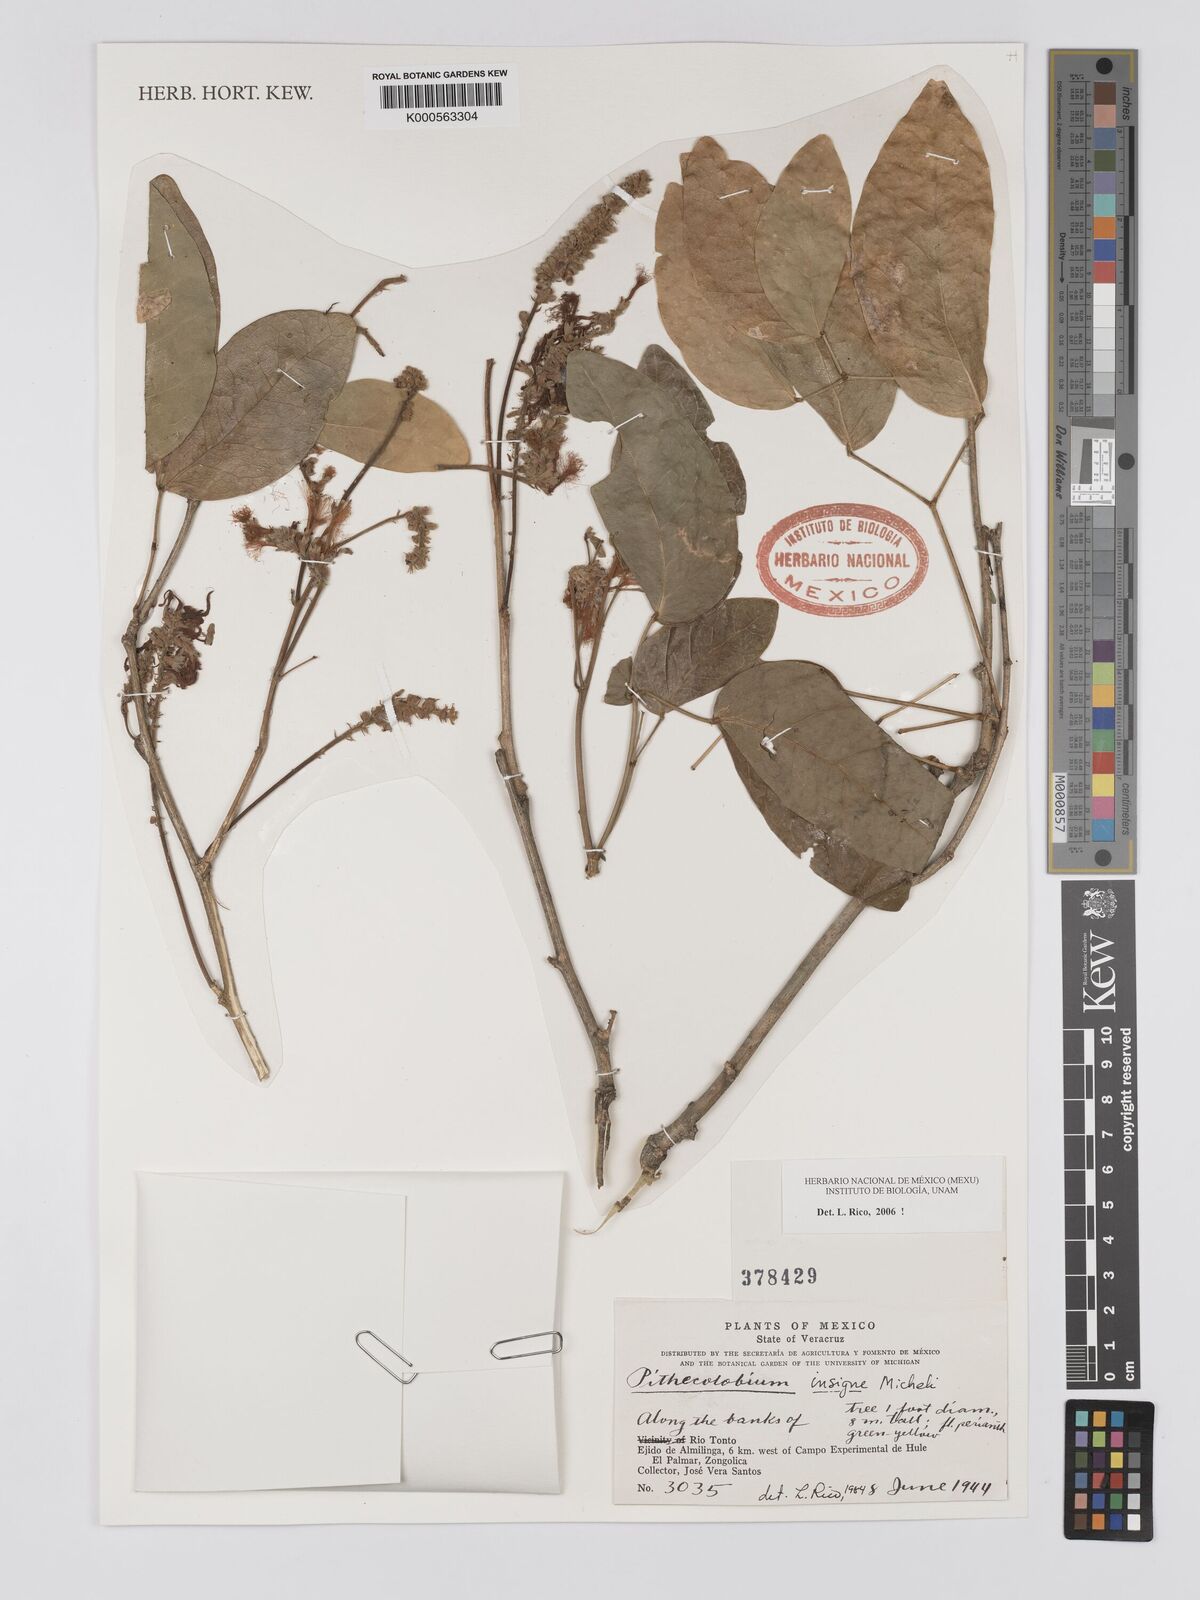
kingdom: Plantae
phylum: Tracheophyta
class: Magnoliopsida
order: Fabales
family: Fabaceae
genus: Pithecellobium
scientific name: Pithecellobium lanceolatum
